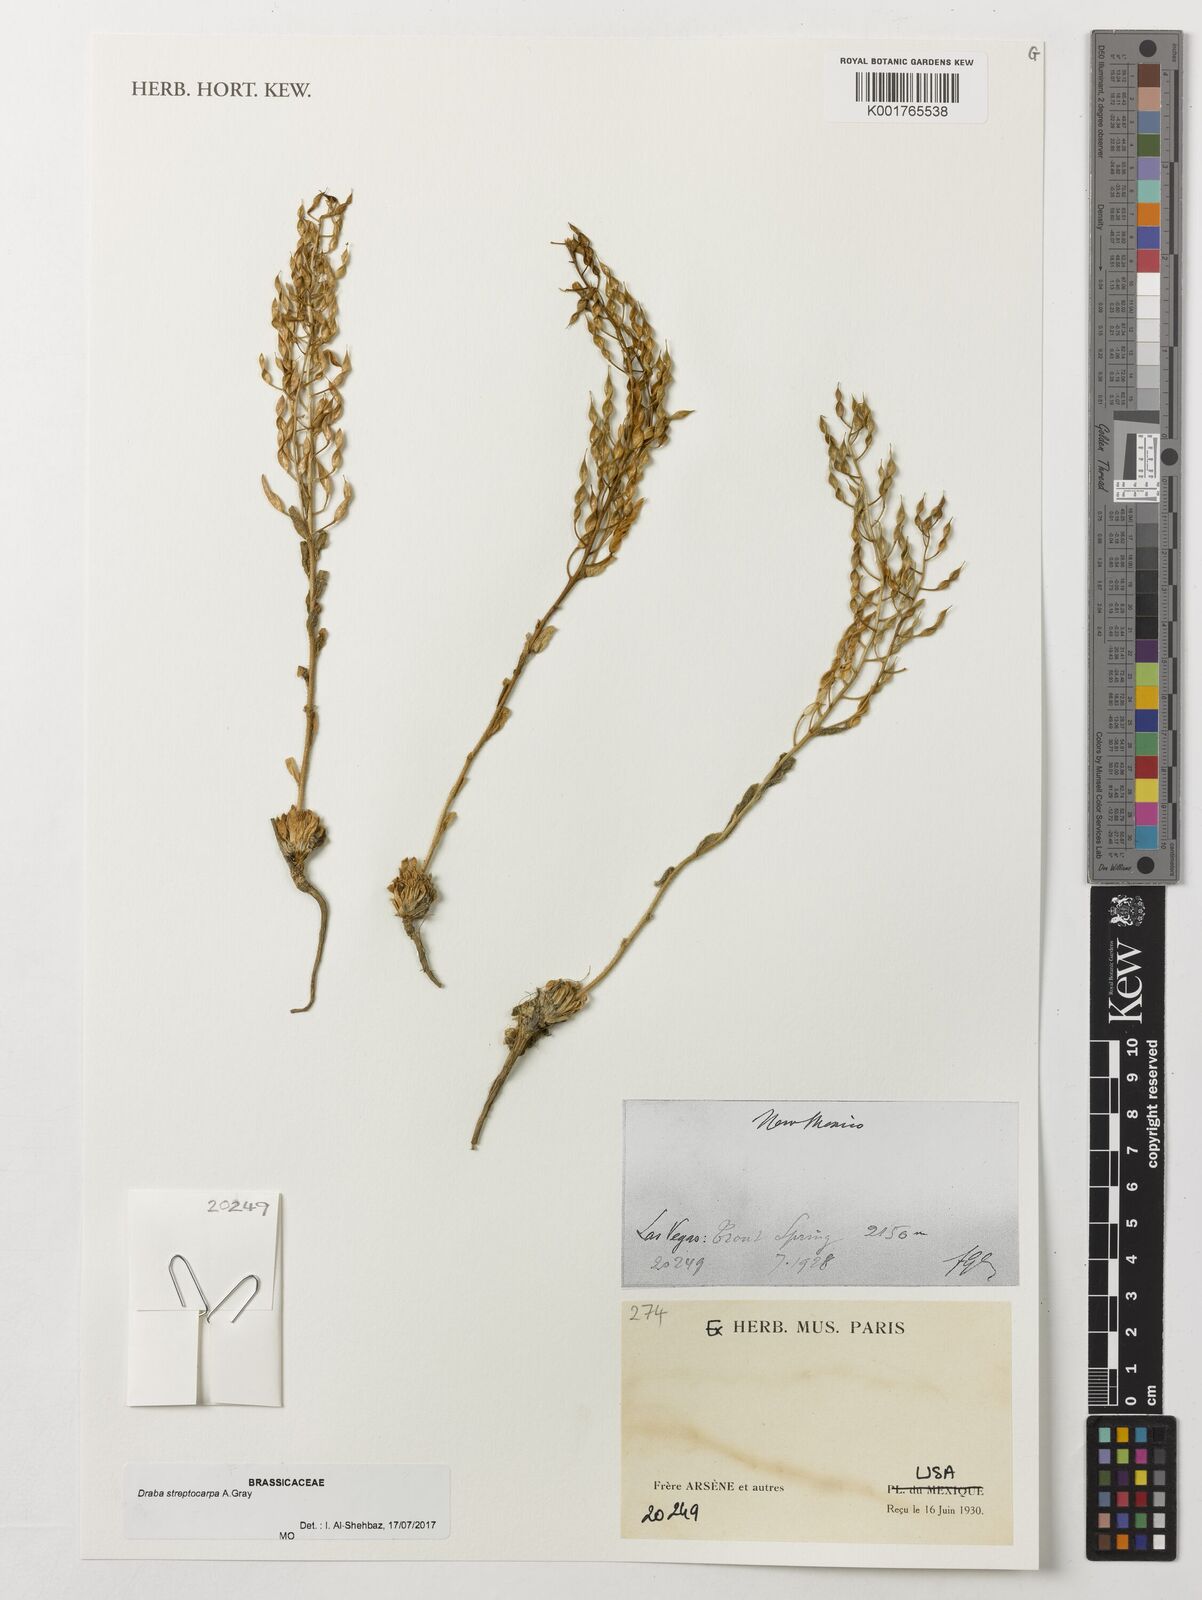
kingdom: Plantae
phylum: Tracheophyta
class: Magnoliopsida
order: Brassicales
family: Brassicaceae
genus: Draba
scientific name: Draba streptocarpa
